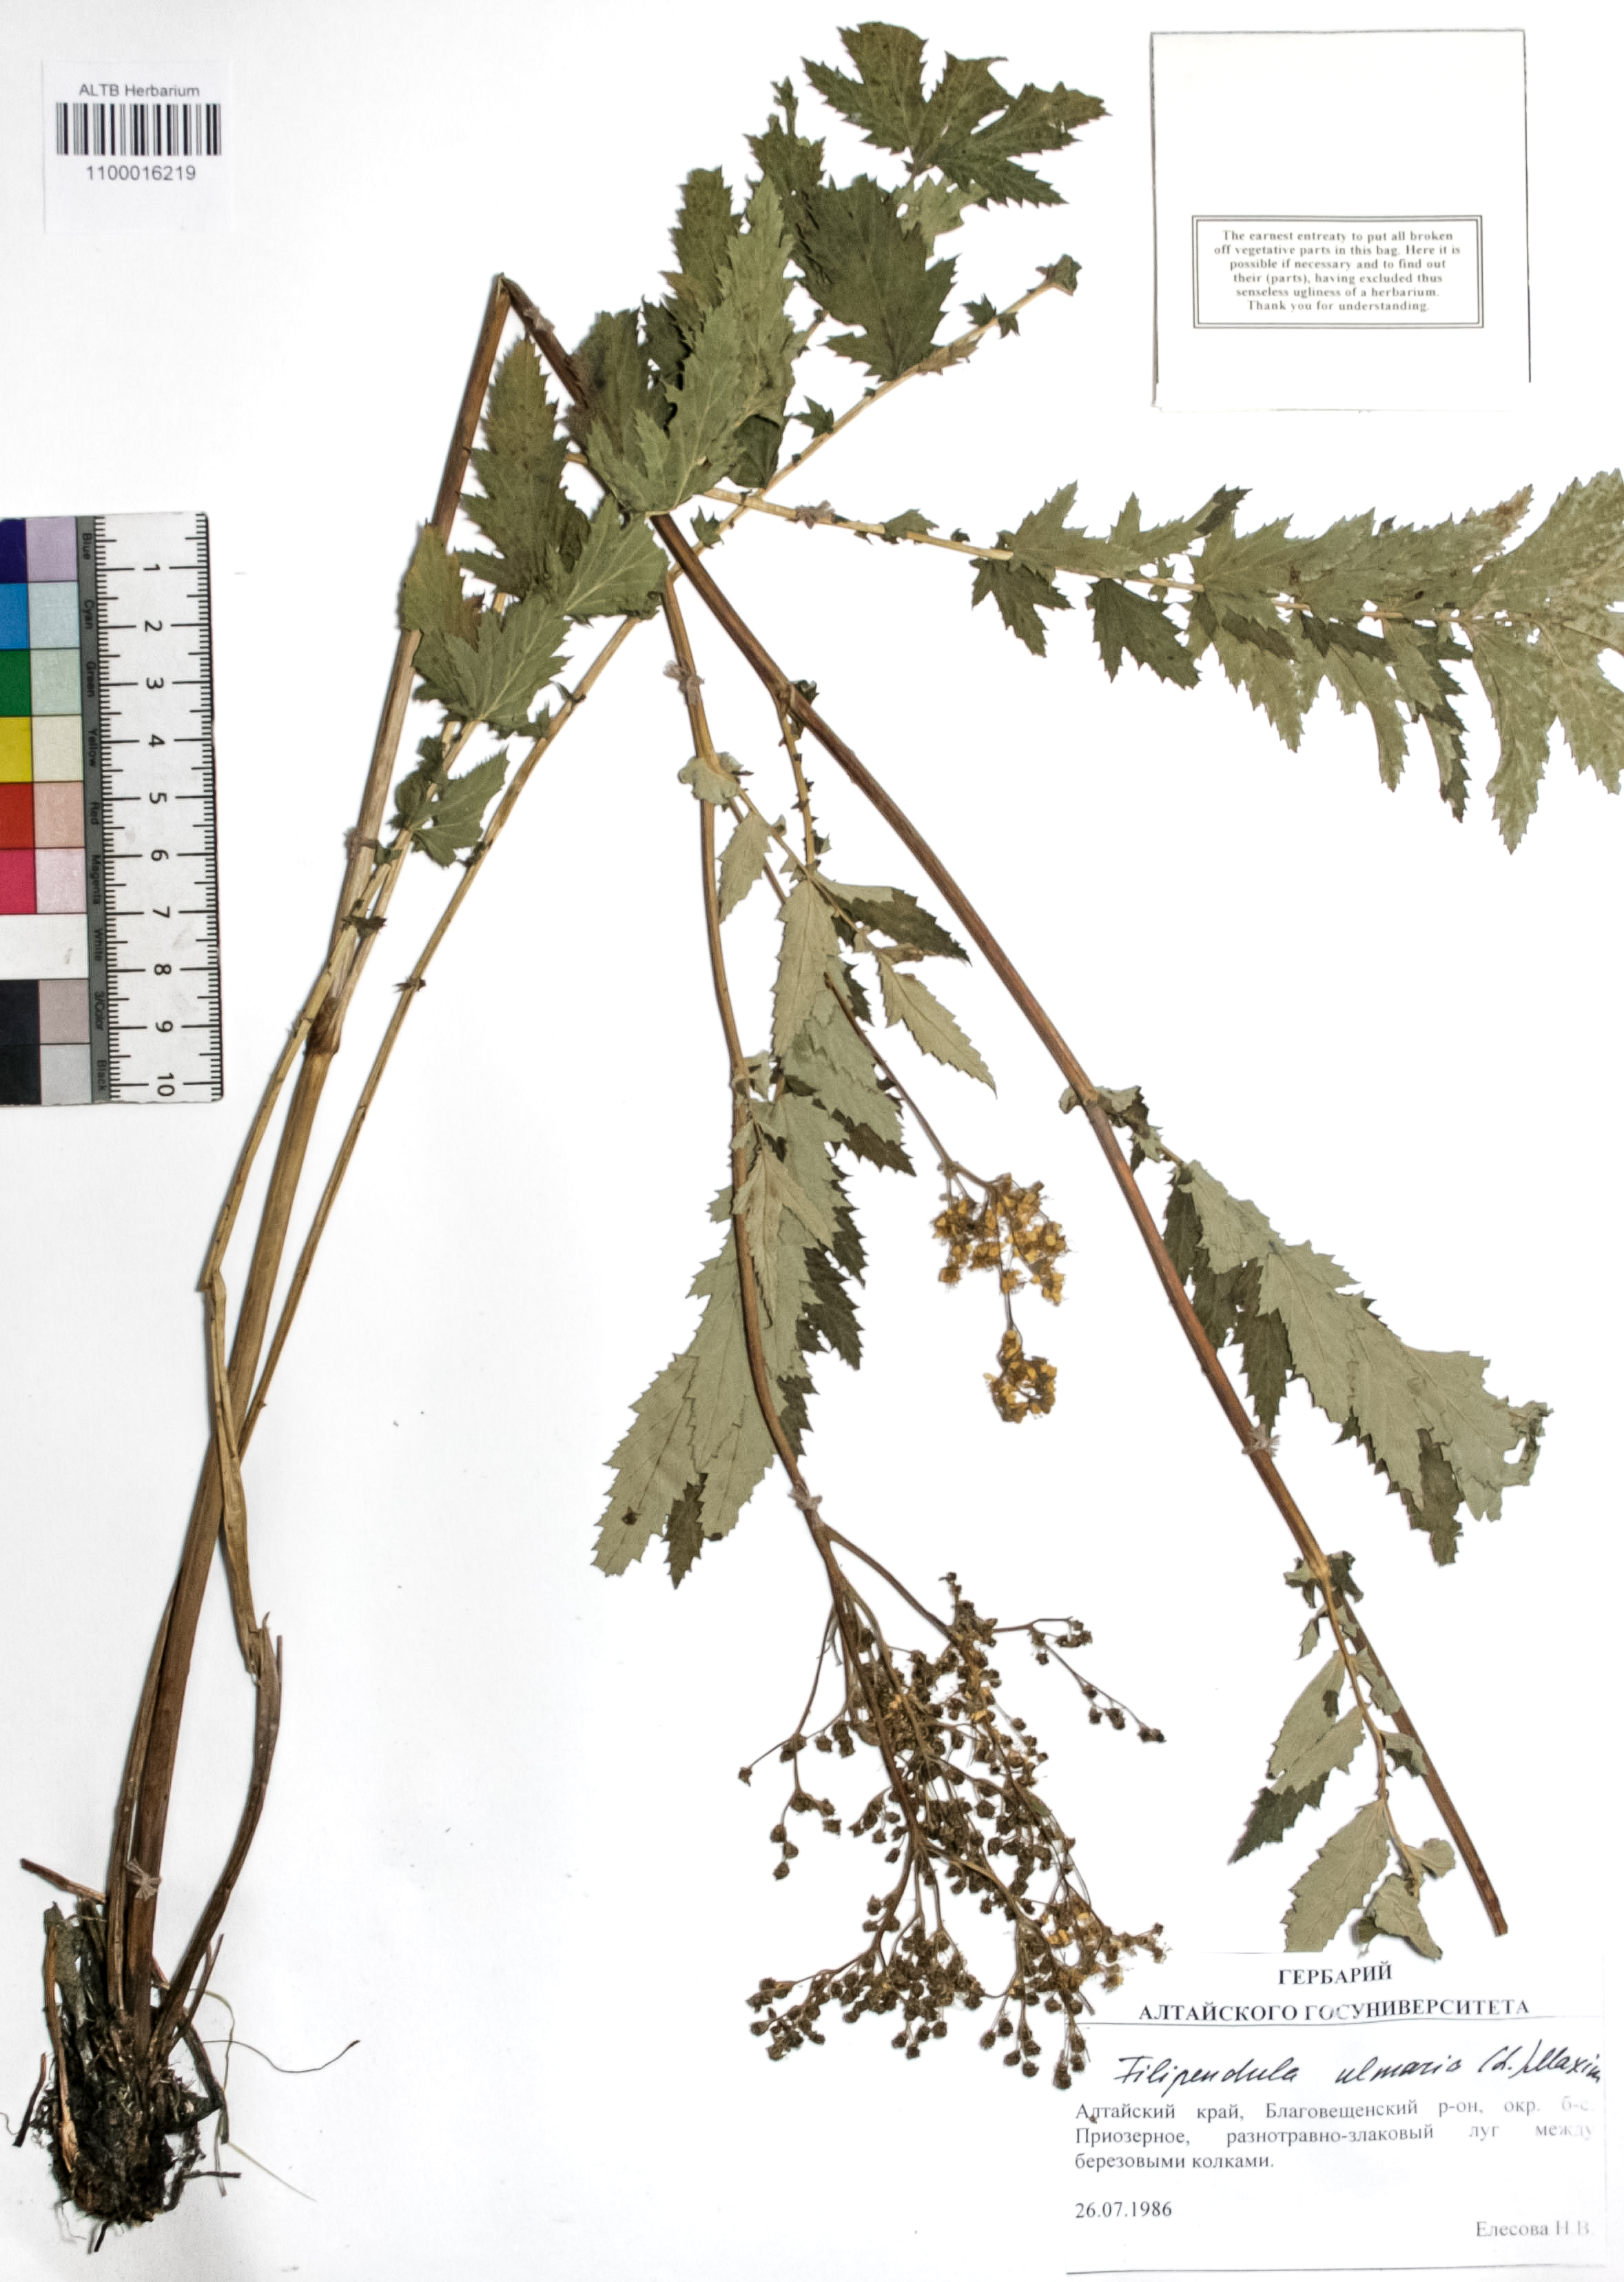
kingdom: Plantae
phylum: Tracheophyta
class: Magnoliopsida
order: Rosales
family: Rosaceae
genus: Filipendula
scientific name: Filipendula ulmaria
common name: Meadowsweet
